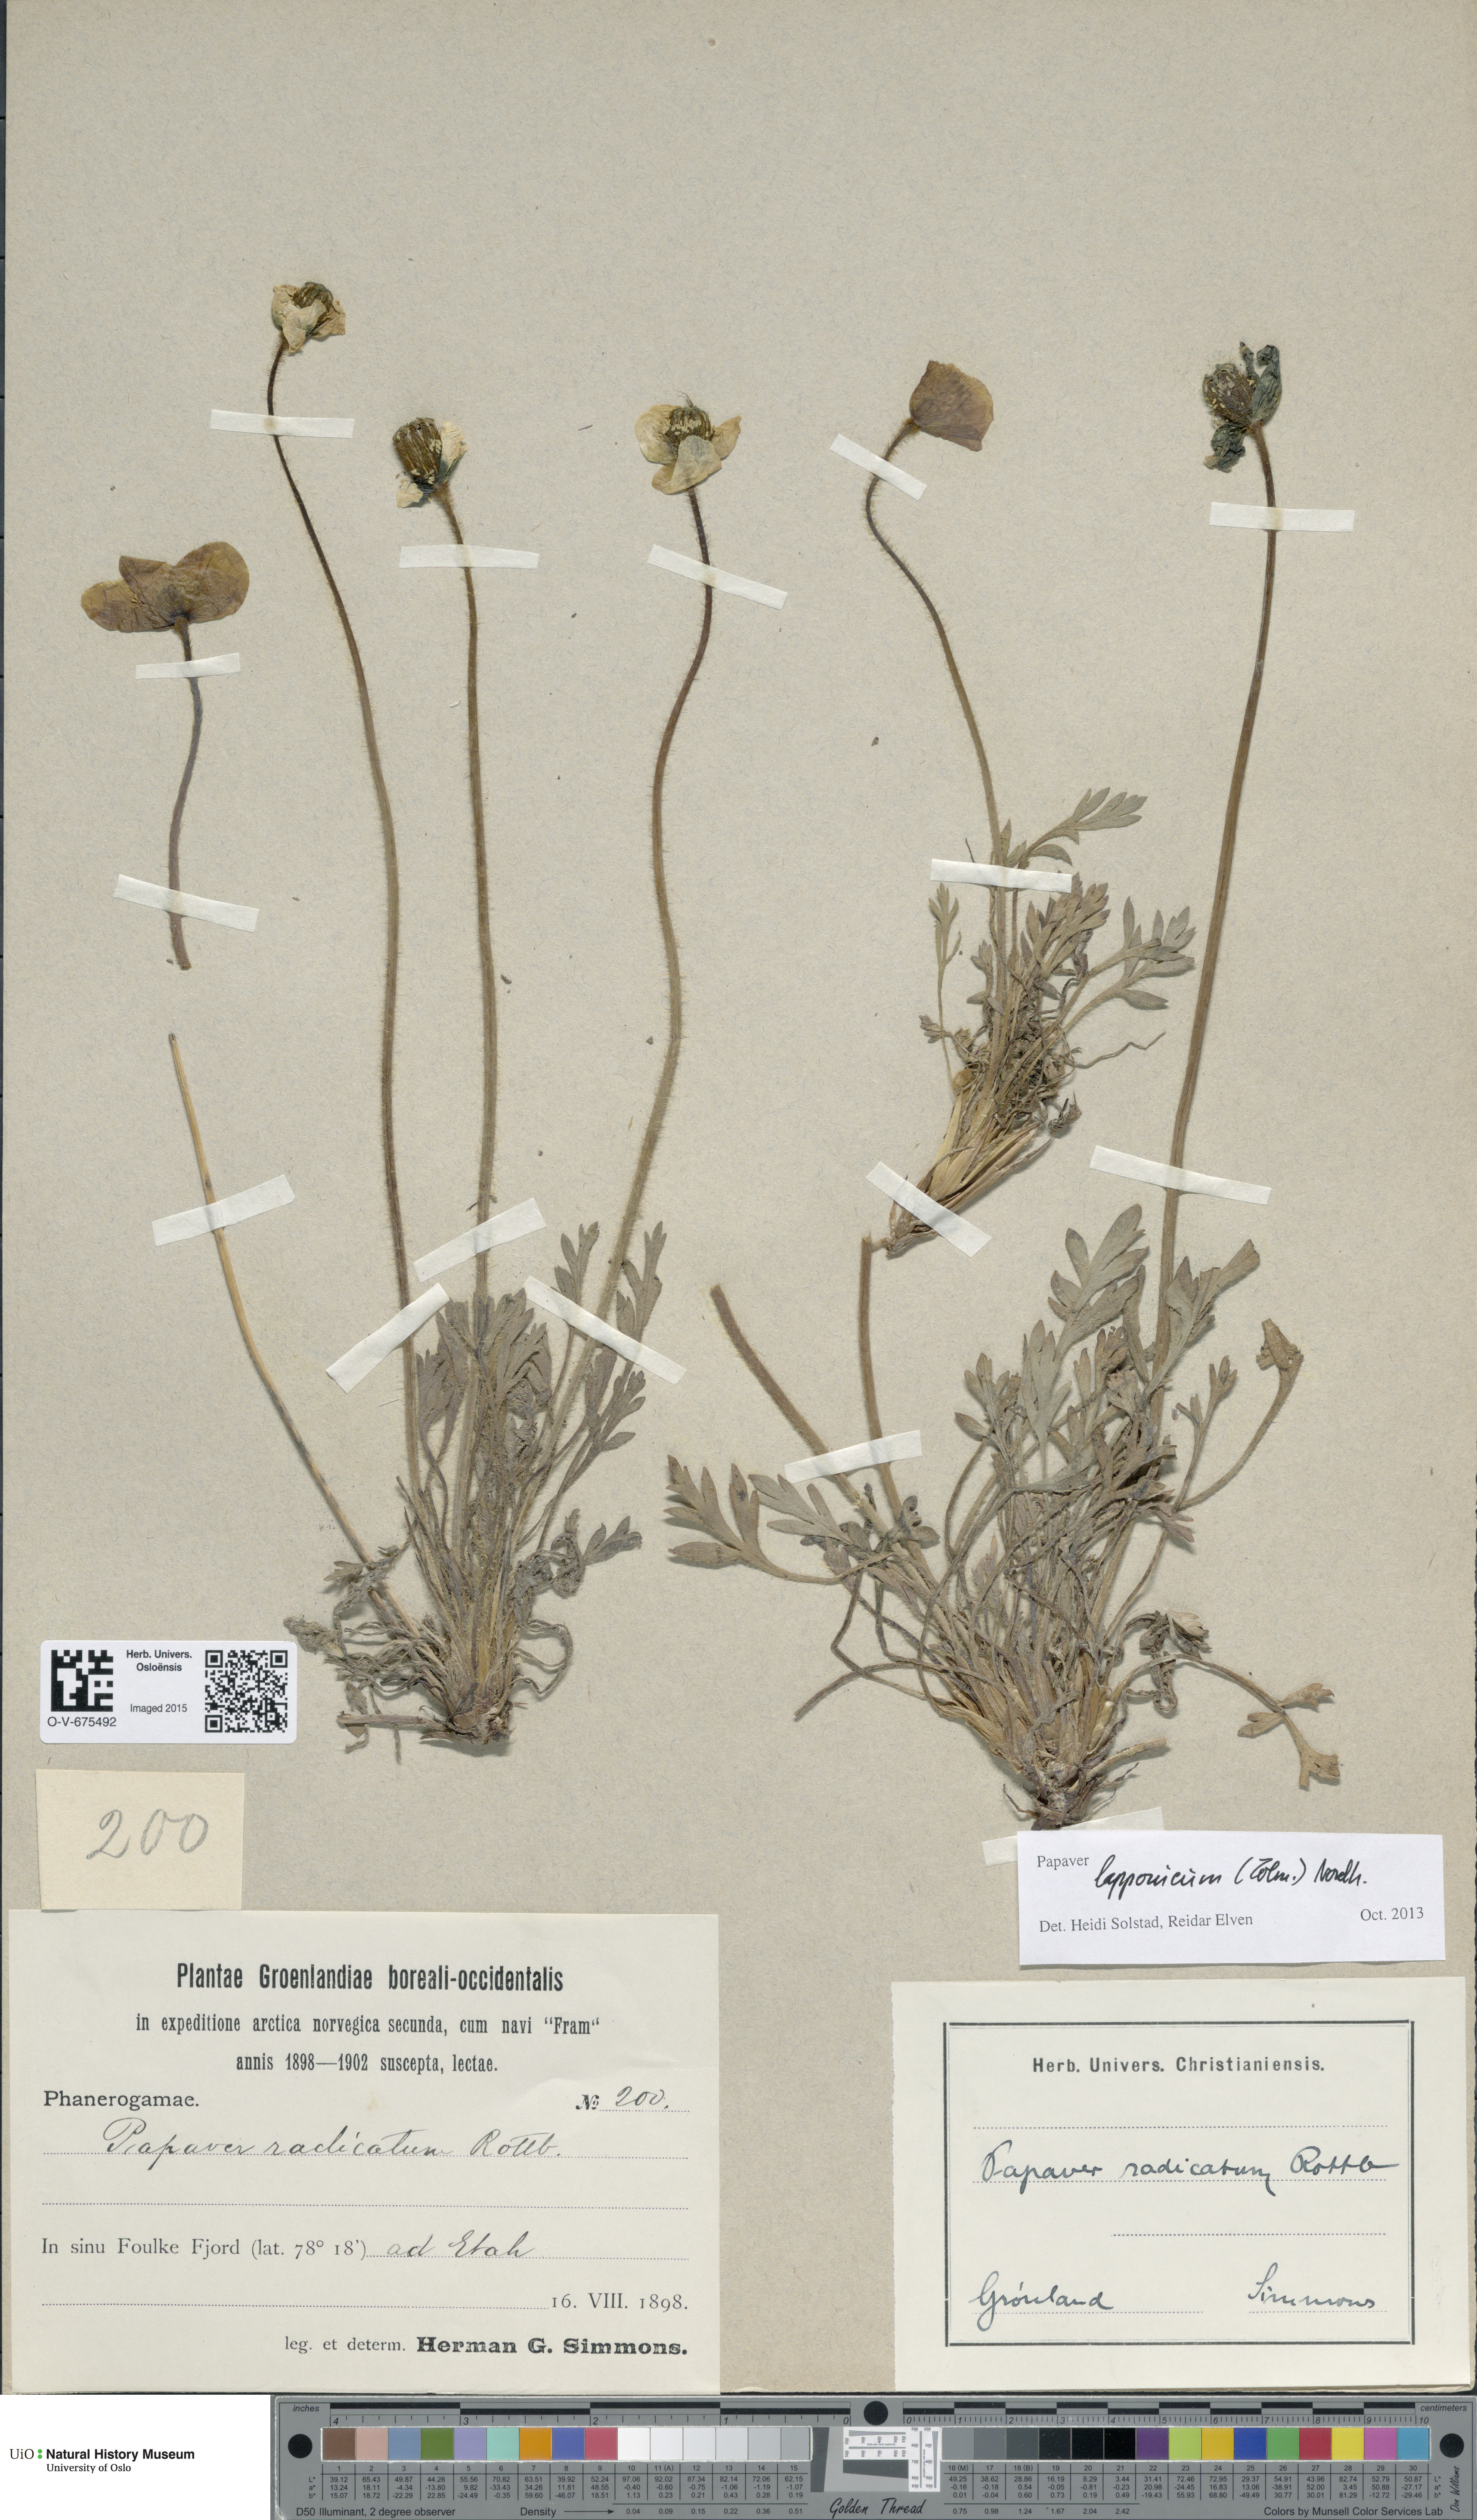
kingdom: Plantae
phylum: Tracheophyta
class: Magnoliopsida
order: Ranunculales
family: Papaveraceae
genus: Papaver
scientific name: Papaver lapponicum
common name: Lapland poppy
